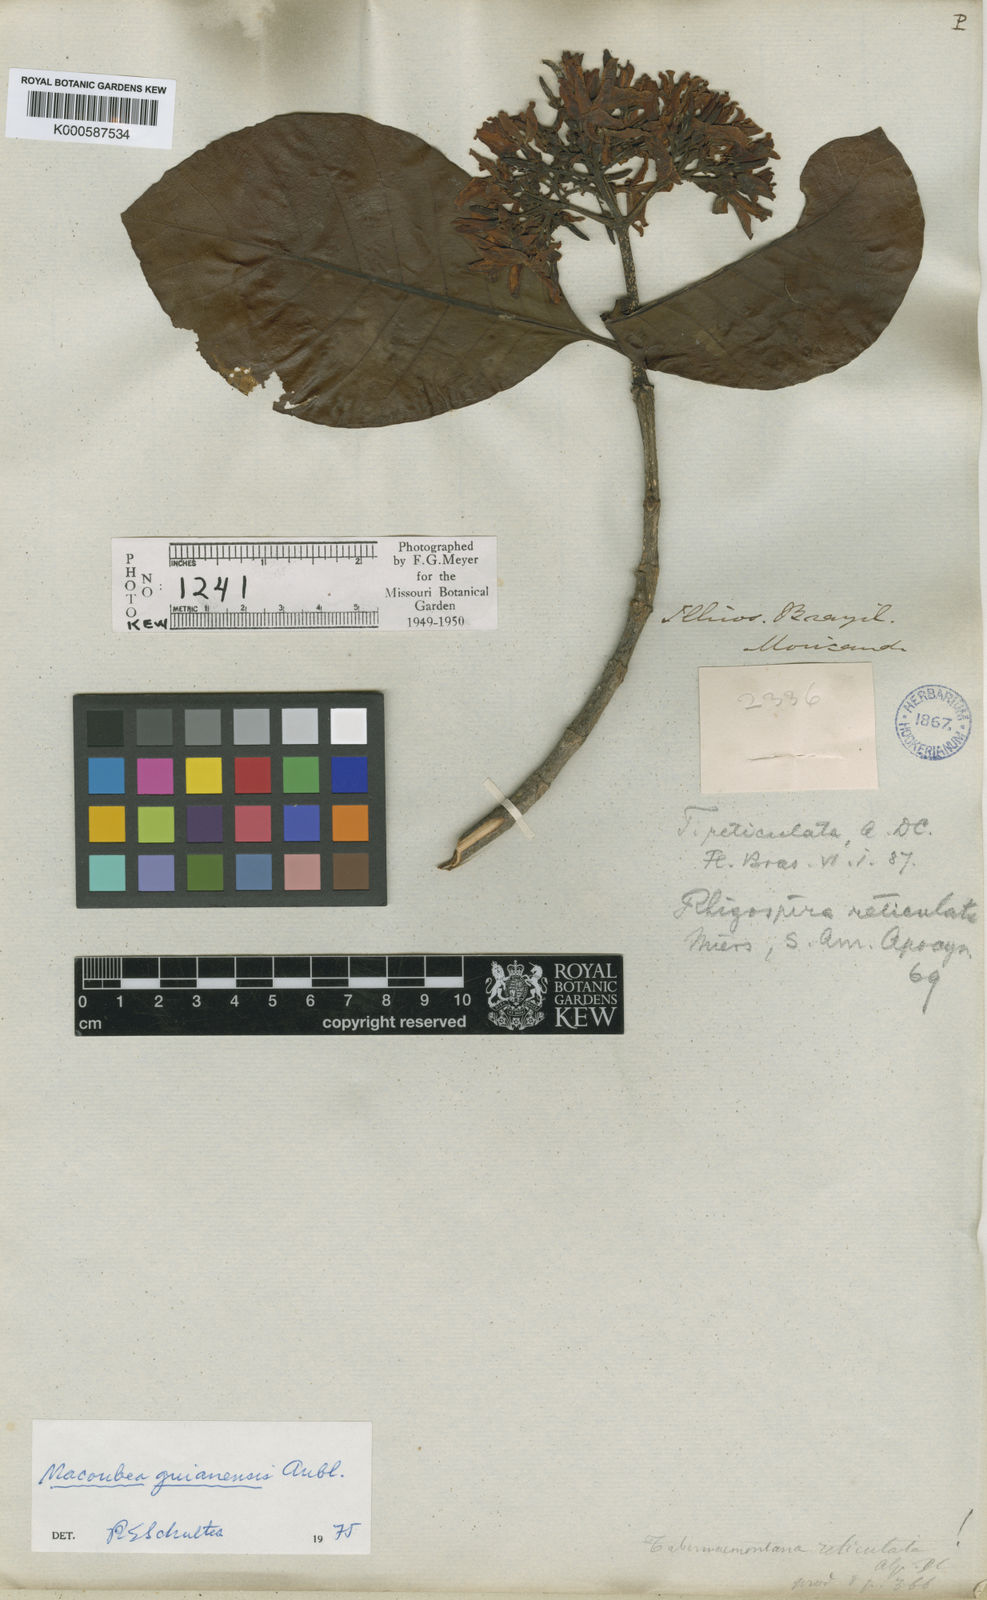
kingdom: Plantae
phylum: Tracheophyta
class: Magnoliopsida
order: Gentianales
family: Apocynaceae
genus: Macoubea
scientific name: Macoubea guianensis
